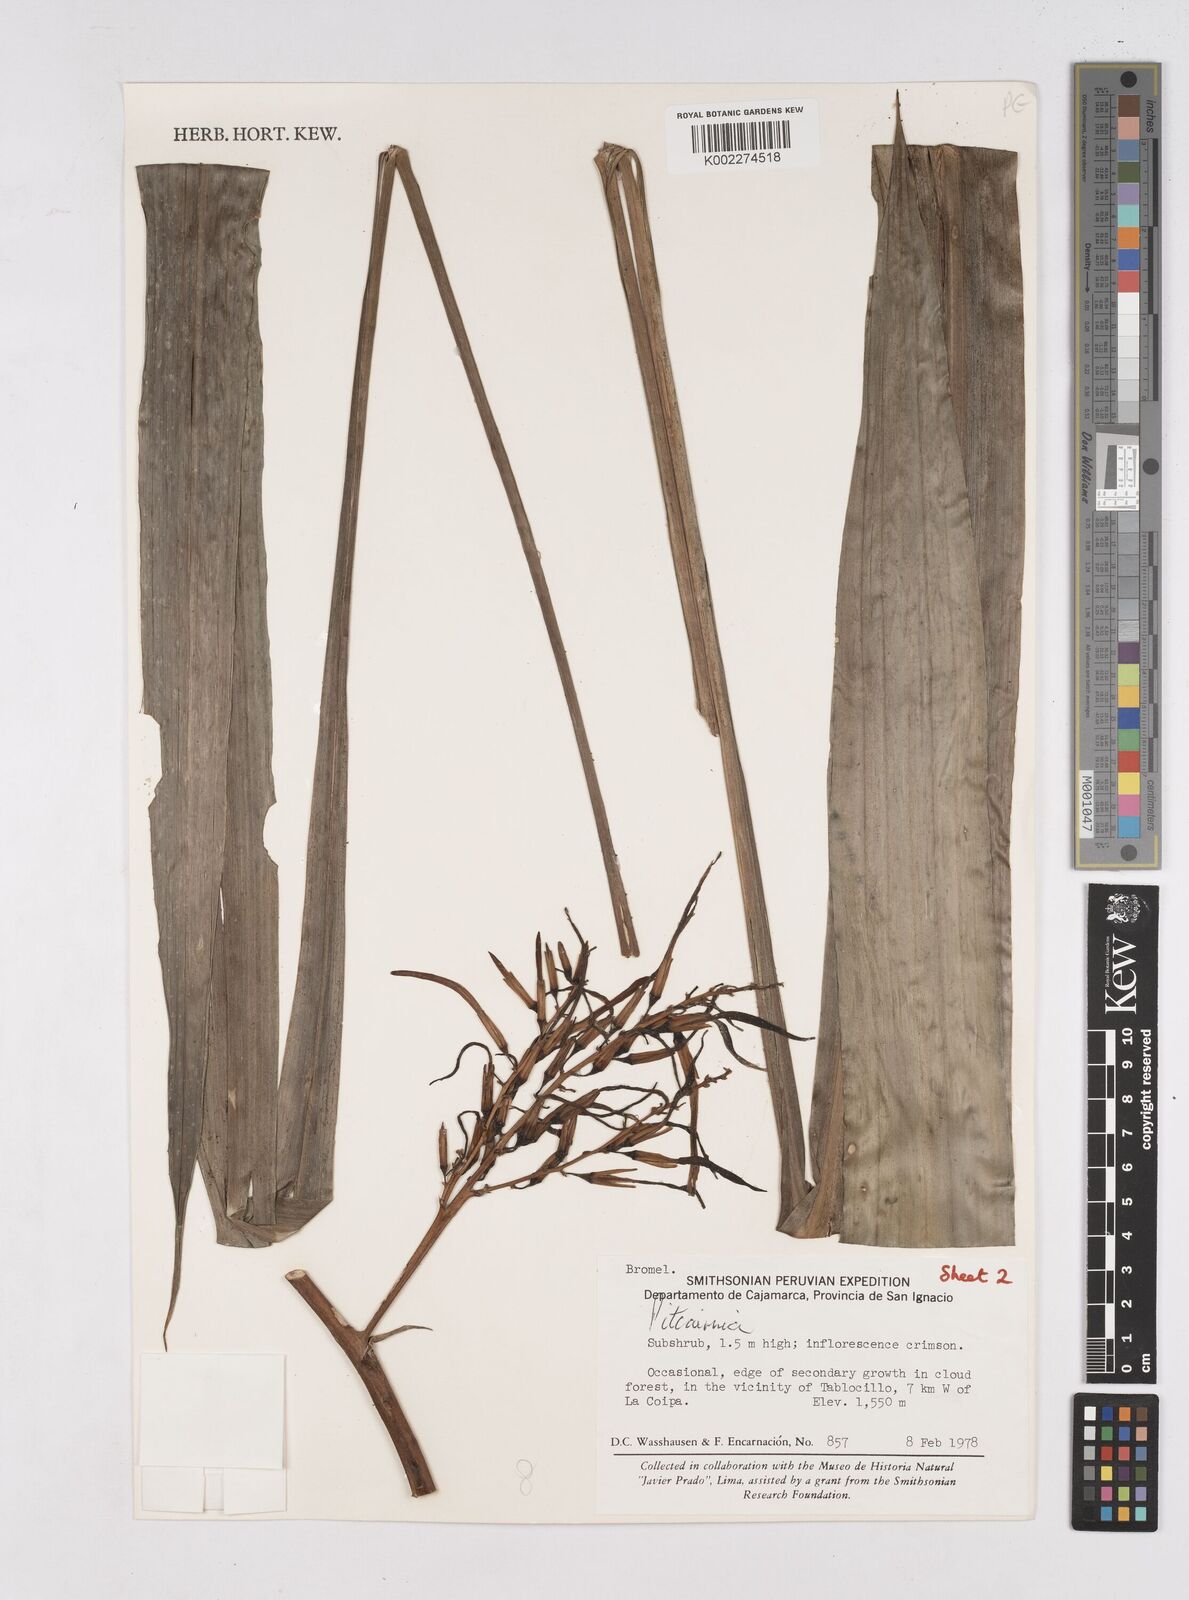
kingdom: Plantae
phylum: Tracheophyta
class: Liliopsida
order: Poales
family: Bromeliaceae
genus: Pitcairnia
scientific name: Pitcairnia
